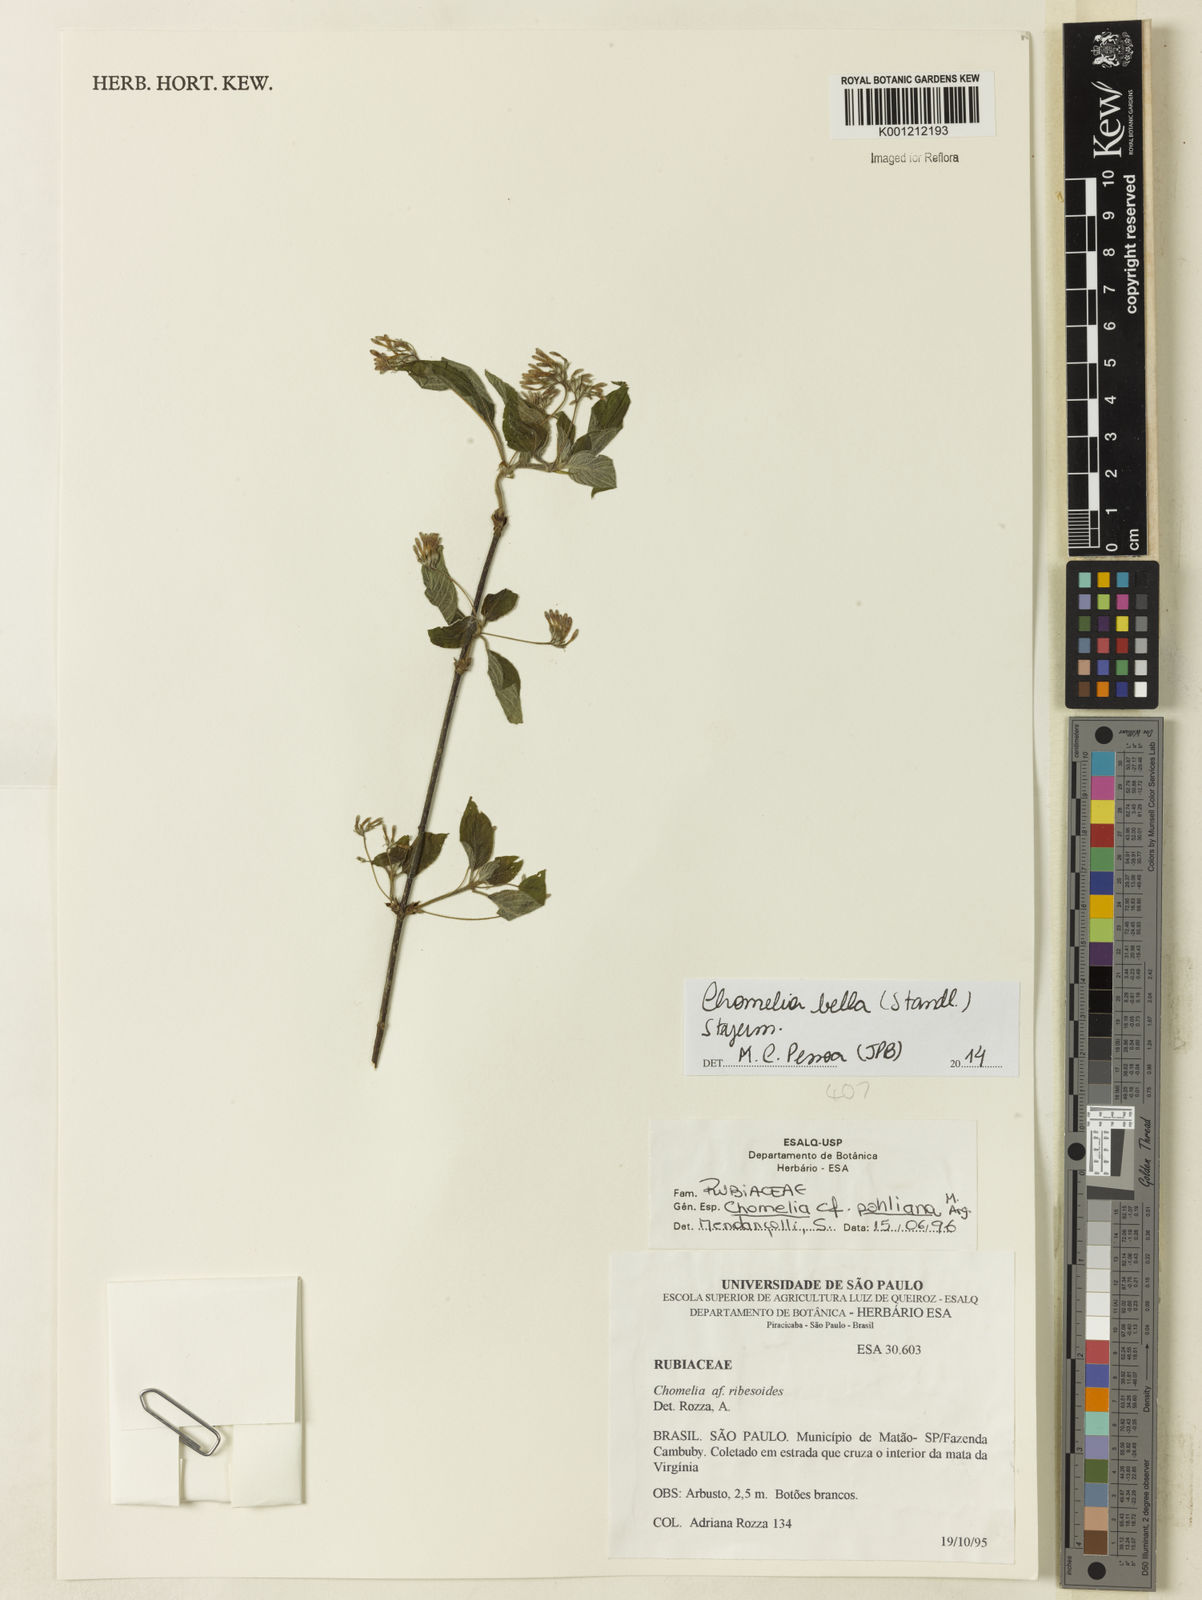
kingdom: Plantae
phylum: Tracheophyta
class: Magnoliopsida
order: Gentianales
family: Rubiaceae
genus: Chomelia
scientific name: Chomelia bella
